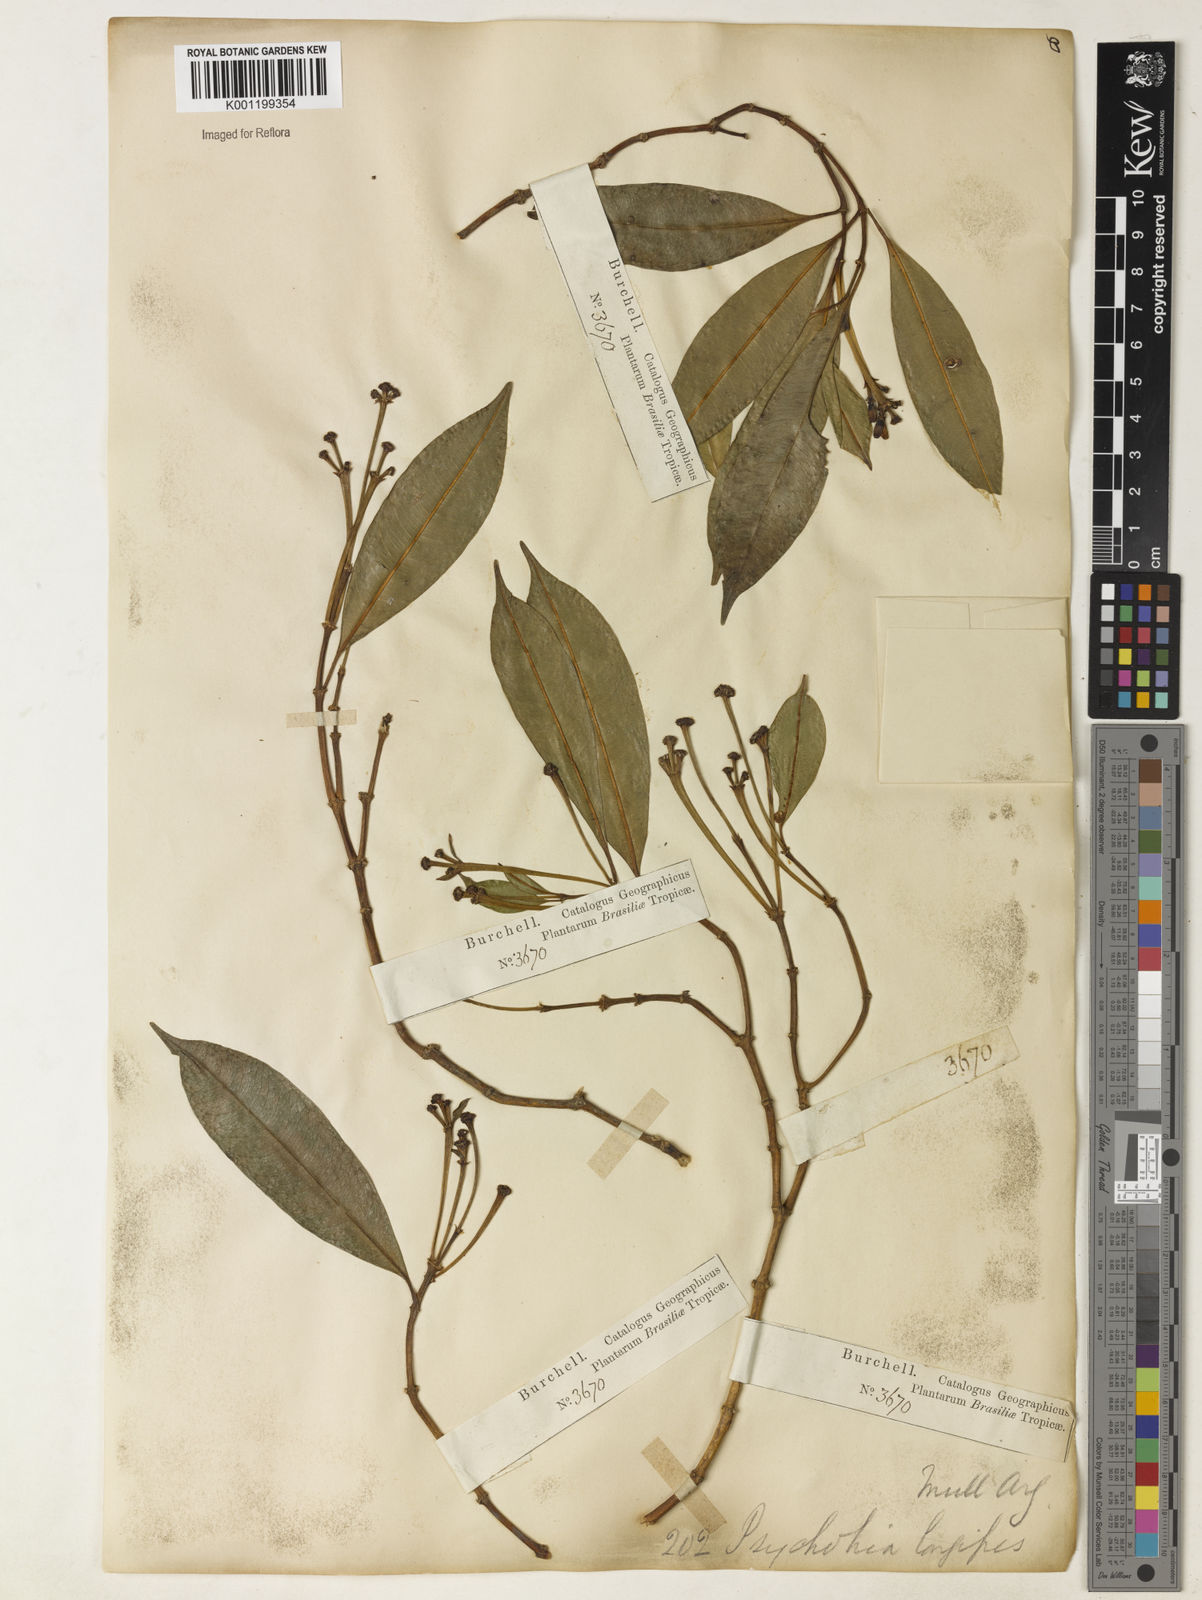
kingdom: Plantae
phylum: Tracheophyta
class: Magnoliopsida
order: Gentianales
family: Rubiaceae
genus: Rudgea
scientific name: Rudgea sessilis
